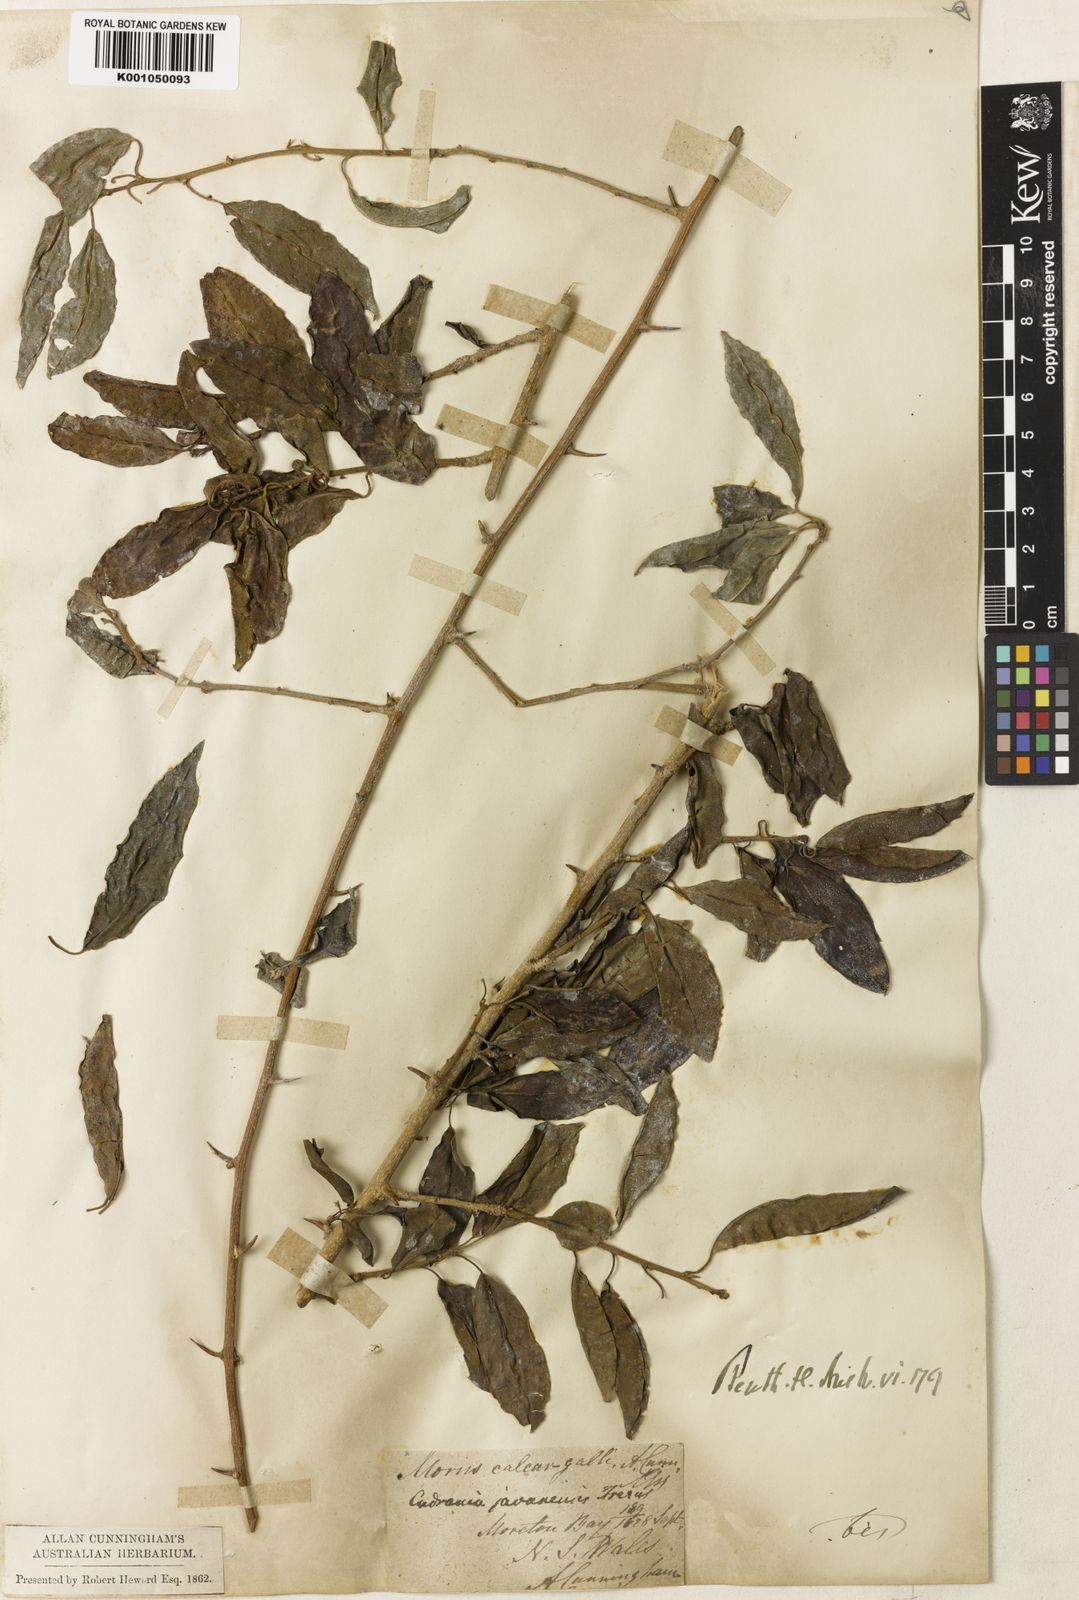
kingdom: Plantae
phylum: Tracheophyta
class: Magnoliopsida
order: Rosales
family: Moraceae
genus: Maclura
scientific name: Maclura cochinchinensis
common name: Cockspurthorn
